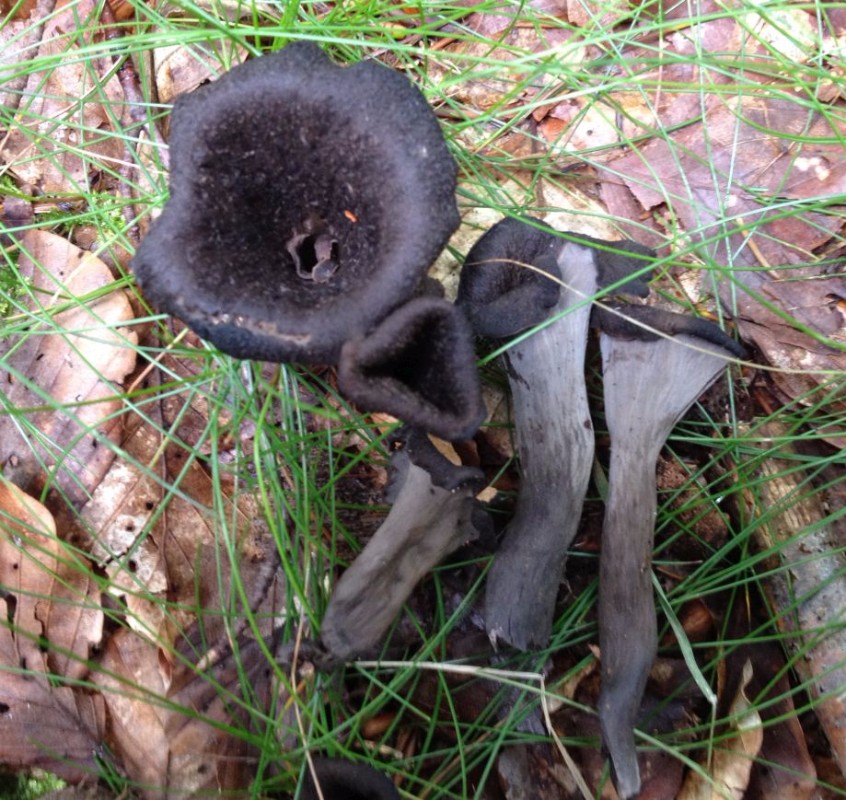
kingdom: Fungi
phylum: Basidiomycota
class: Agaricomycetes
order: Cantharellales
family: Hydnaceae
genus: Craterellus
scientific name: Craterellus cornucopioides
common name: trompetsvamp
